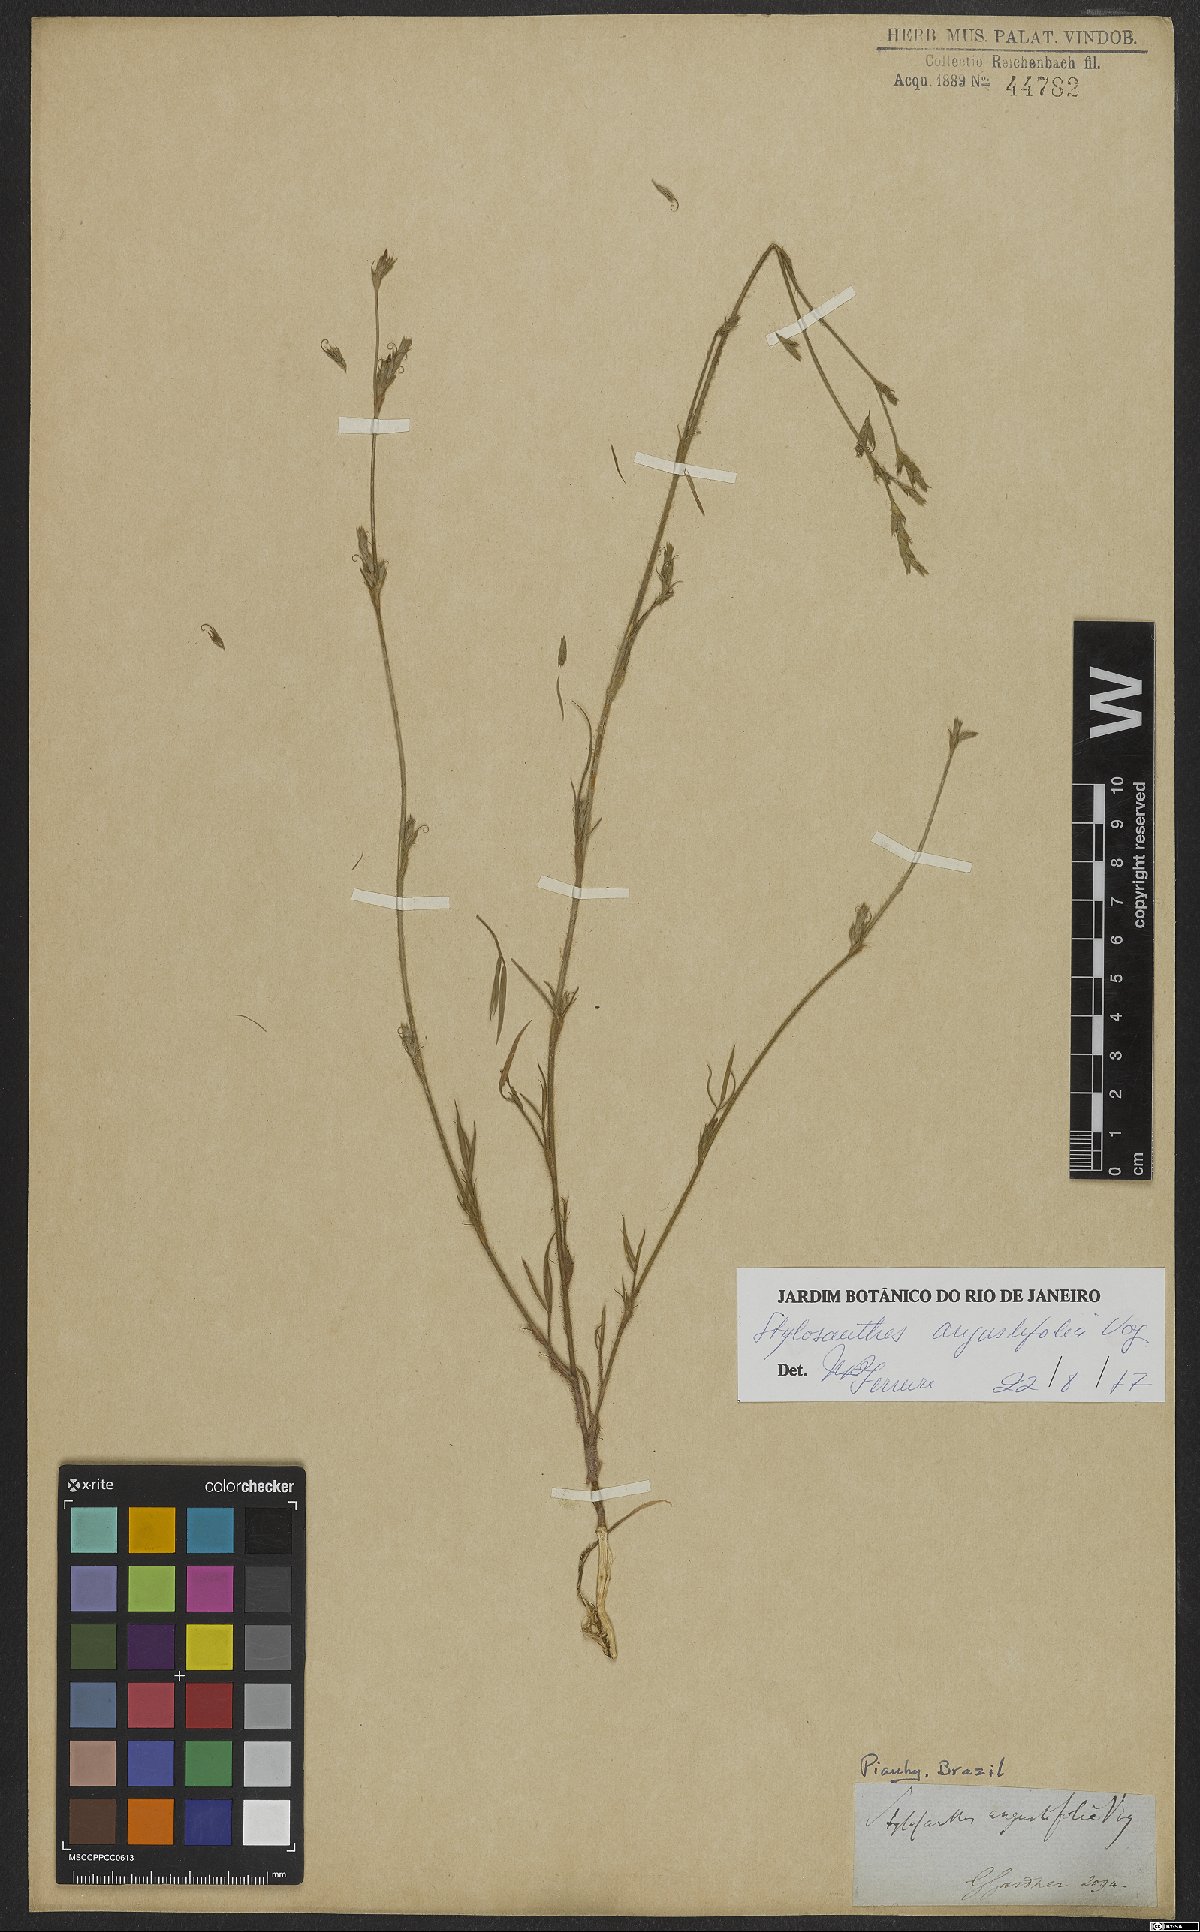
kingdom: Plantae
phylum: Tracheophyta
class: Magnoliopsida
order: Fabales
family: Fabaceae
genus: Stylosanthes
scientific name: Stylosanthes angustifolia
